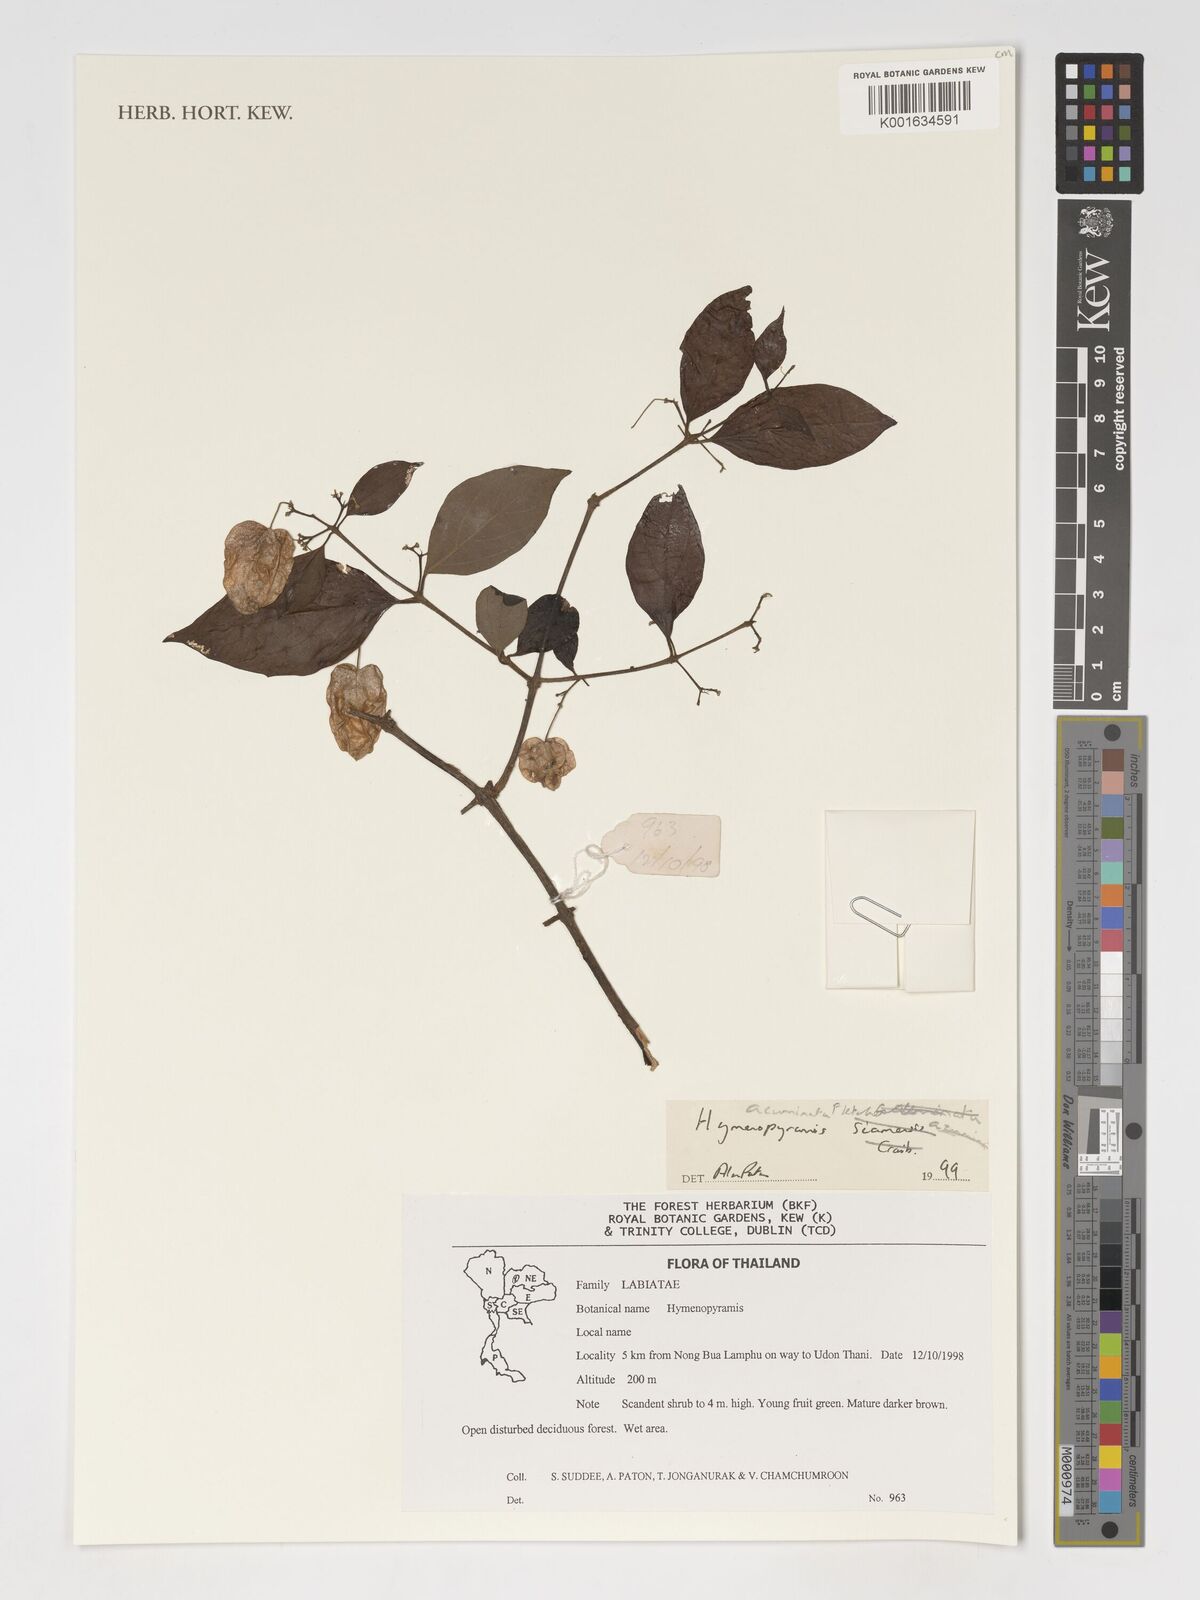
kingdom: Plantae
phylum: Tracheophyta
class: Magnoliopsida
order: Lamiales
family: Lamiaceae
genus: Hymenopyramis
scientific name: Hymenopyramis acuminata
